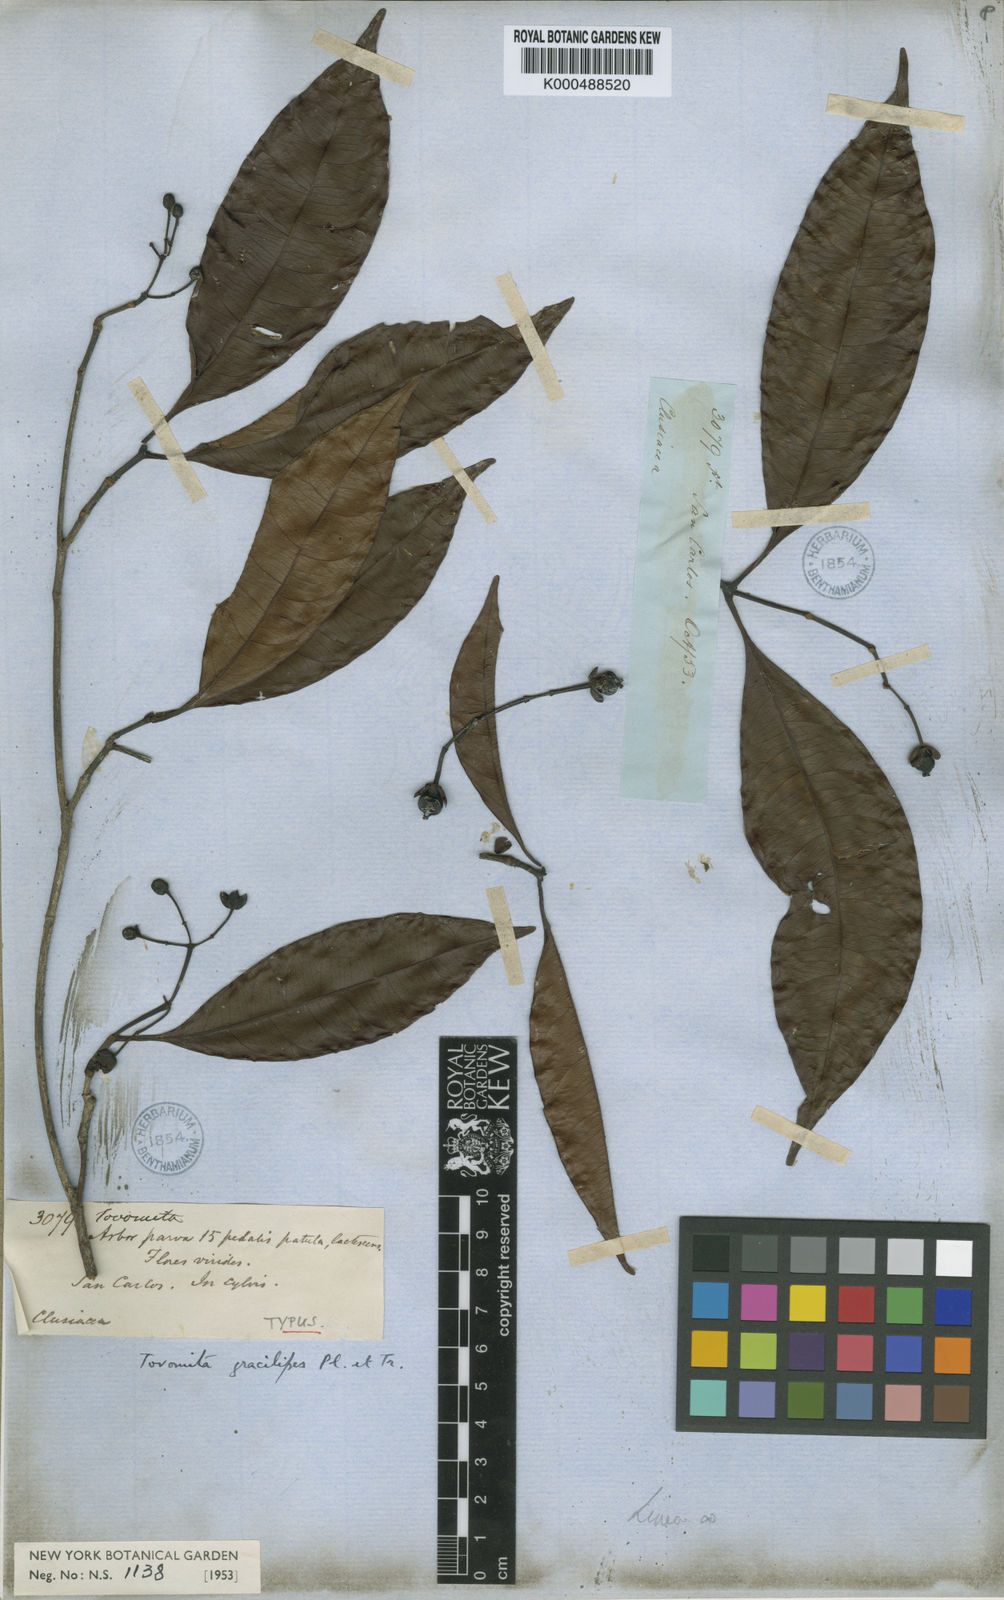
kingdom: Plantae
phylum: Tracheophyta
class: Magnoliopsida
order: Malpighiales
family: Clusiaceae
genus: Tovomita
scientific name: Tovomita gracilipes
